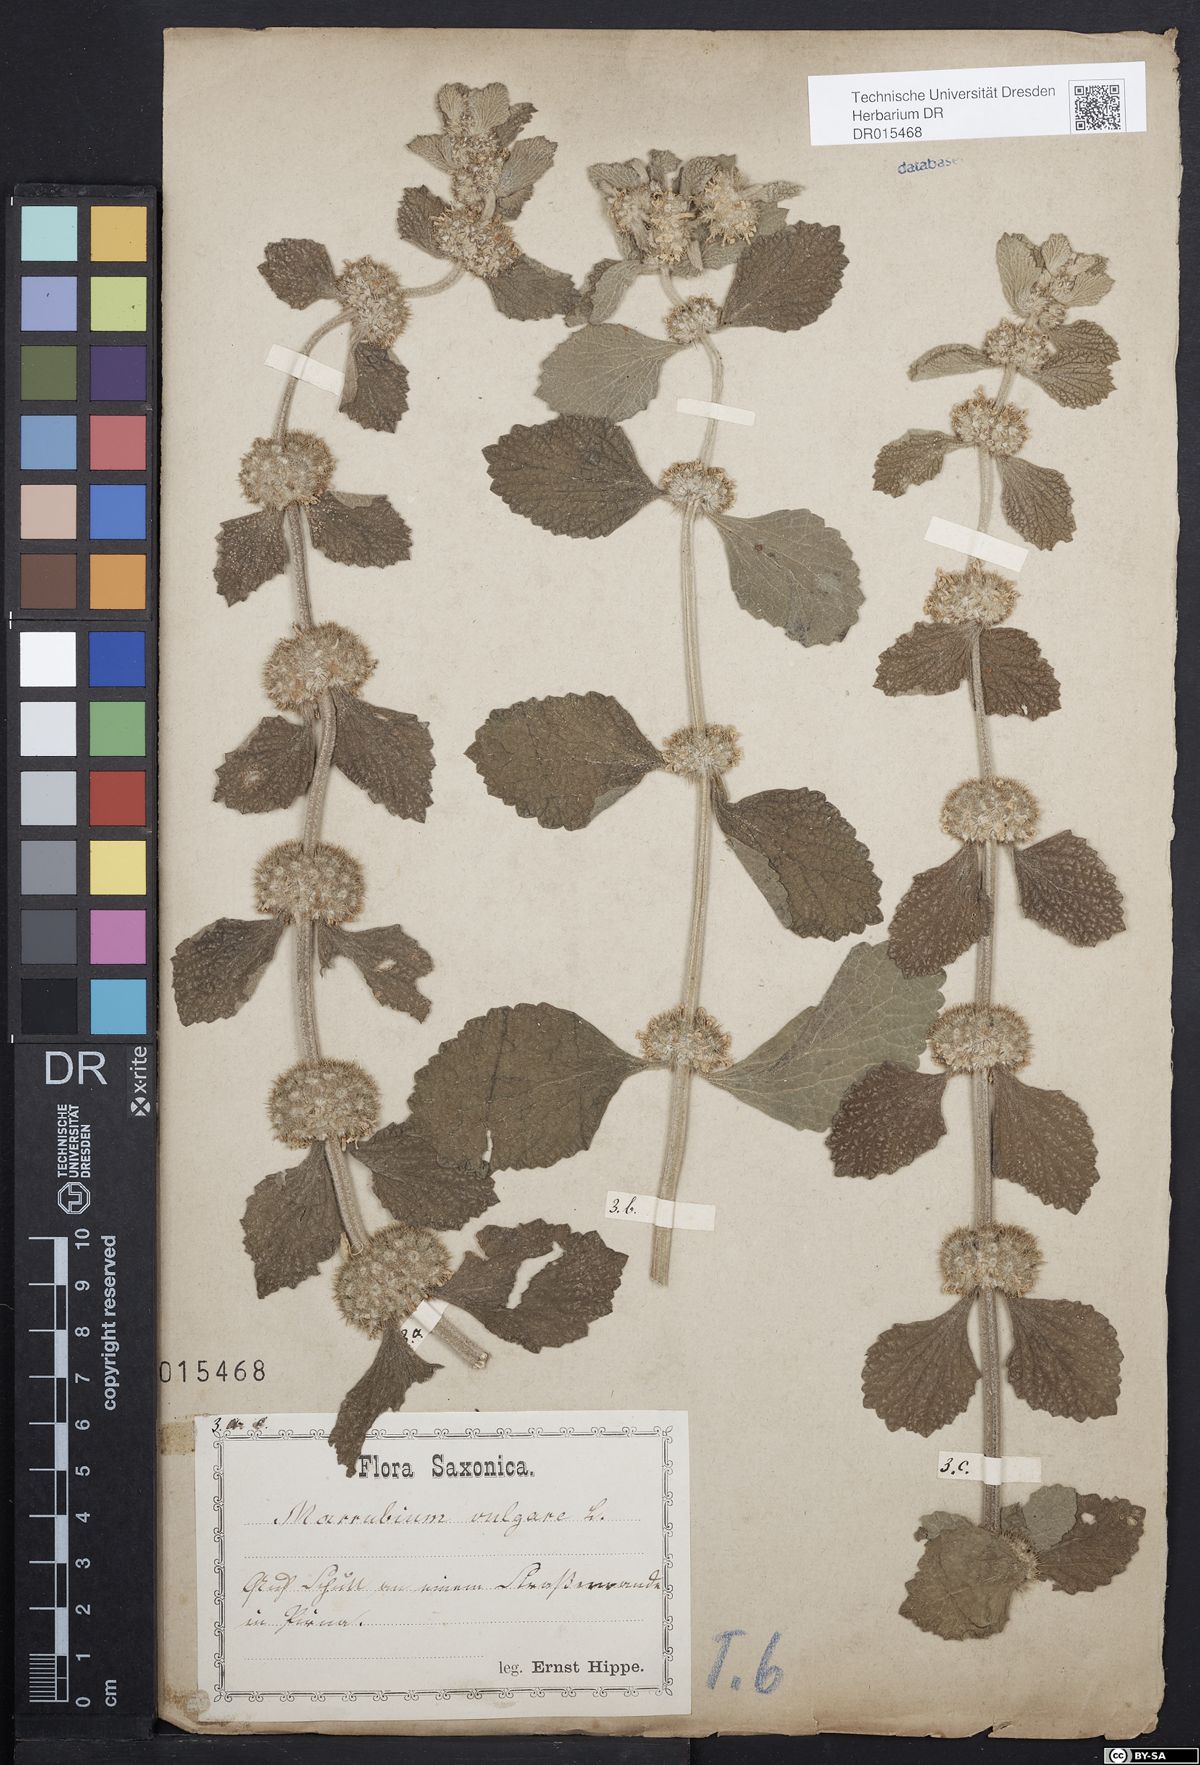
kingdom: Plantae
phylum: Tracheophyta
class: Magnoliopsida
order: Lamiales
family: Lamiaceae
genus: Marrubium
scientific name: Marrubium vulgare
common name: Horehound
